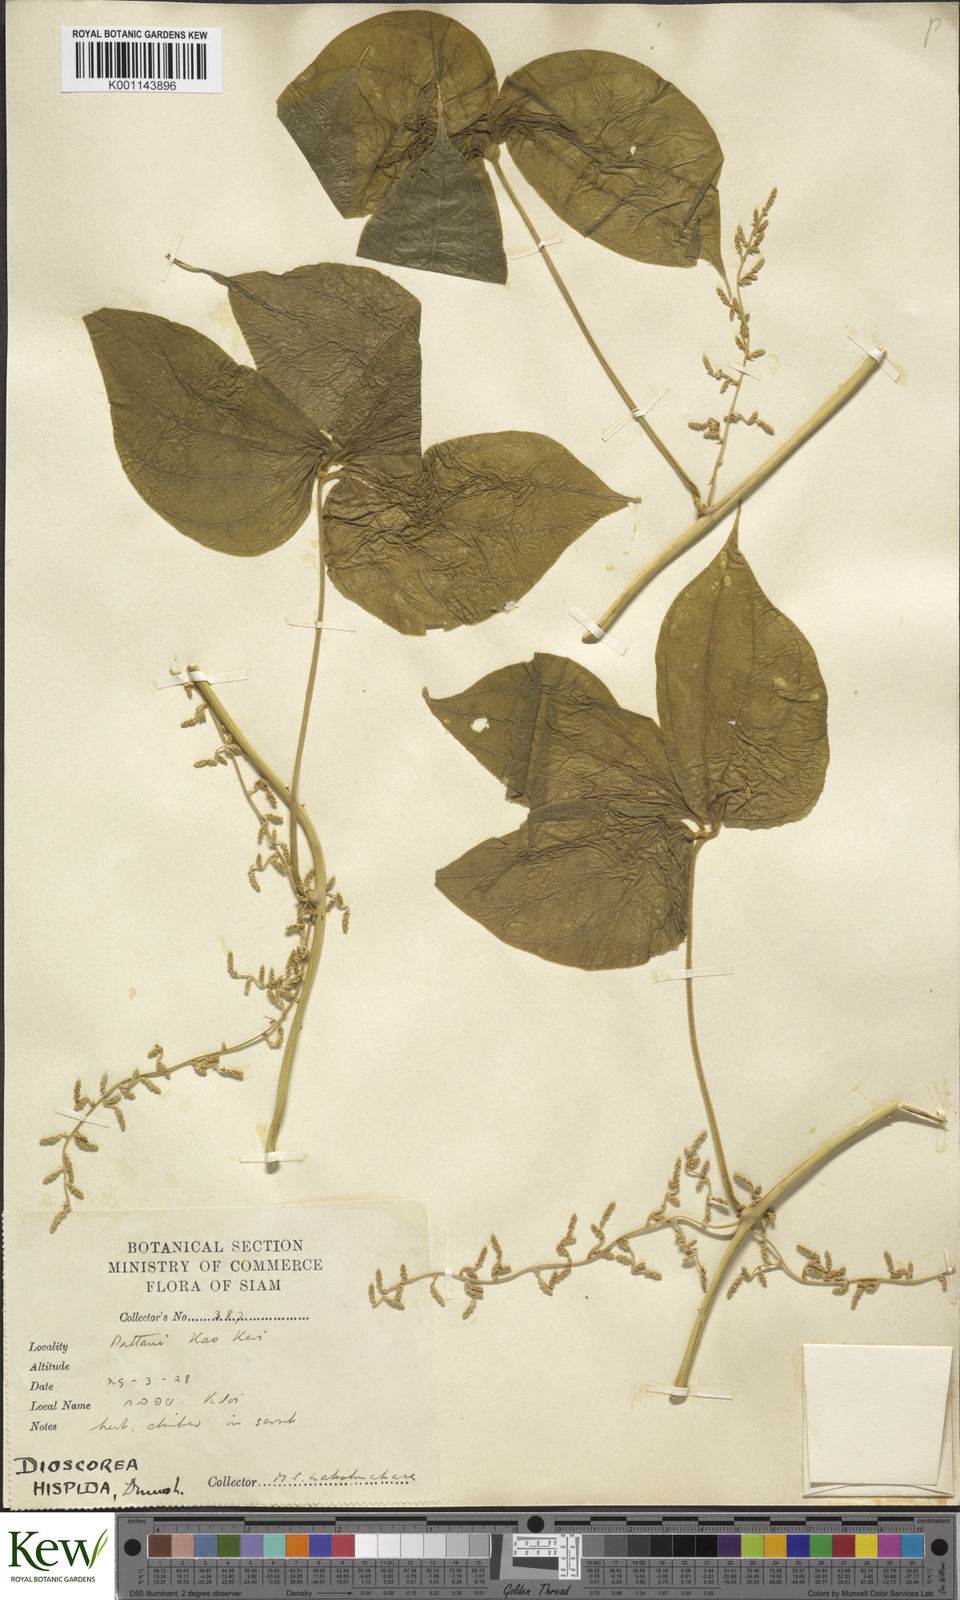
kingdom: Plantae
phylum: Tracheophyta
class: Liliopsida
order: Dioscoreales
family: Dioscoreaceae
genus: Dioscorea
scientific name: Dioscorea hispida
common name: Asiatic bitter yam
